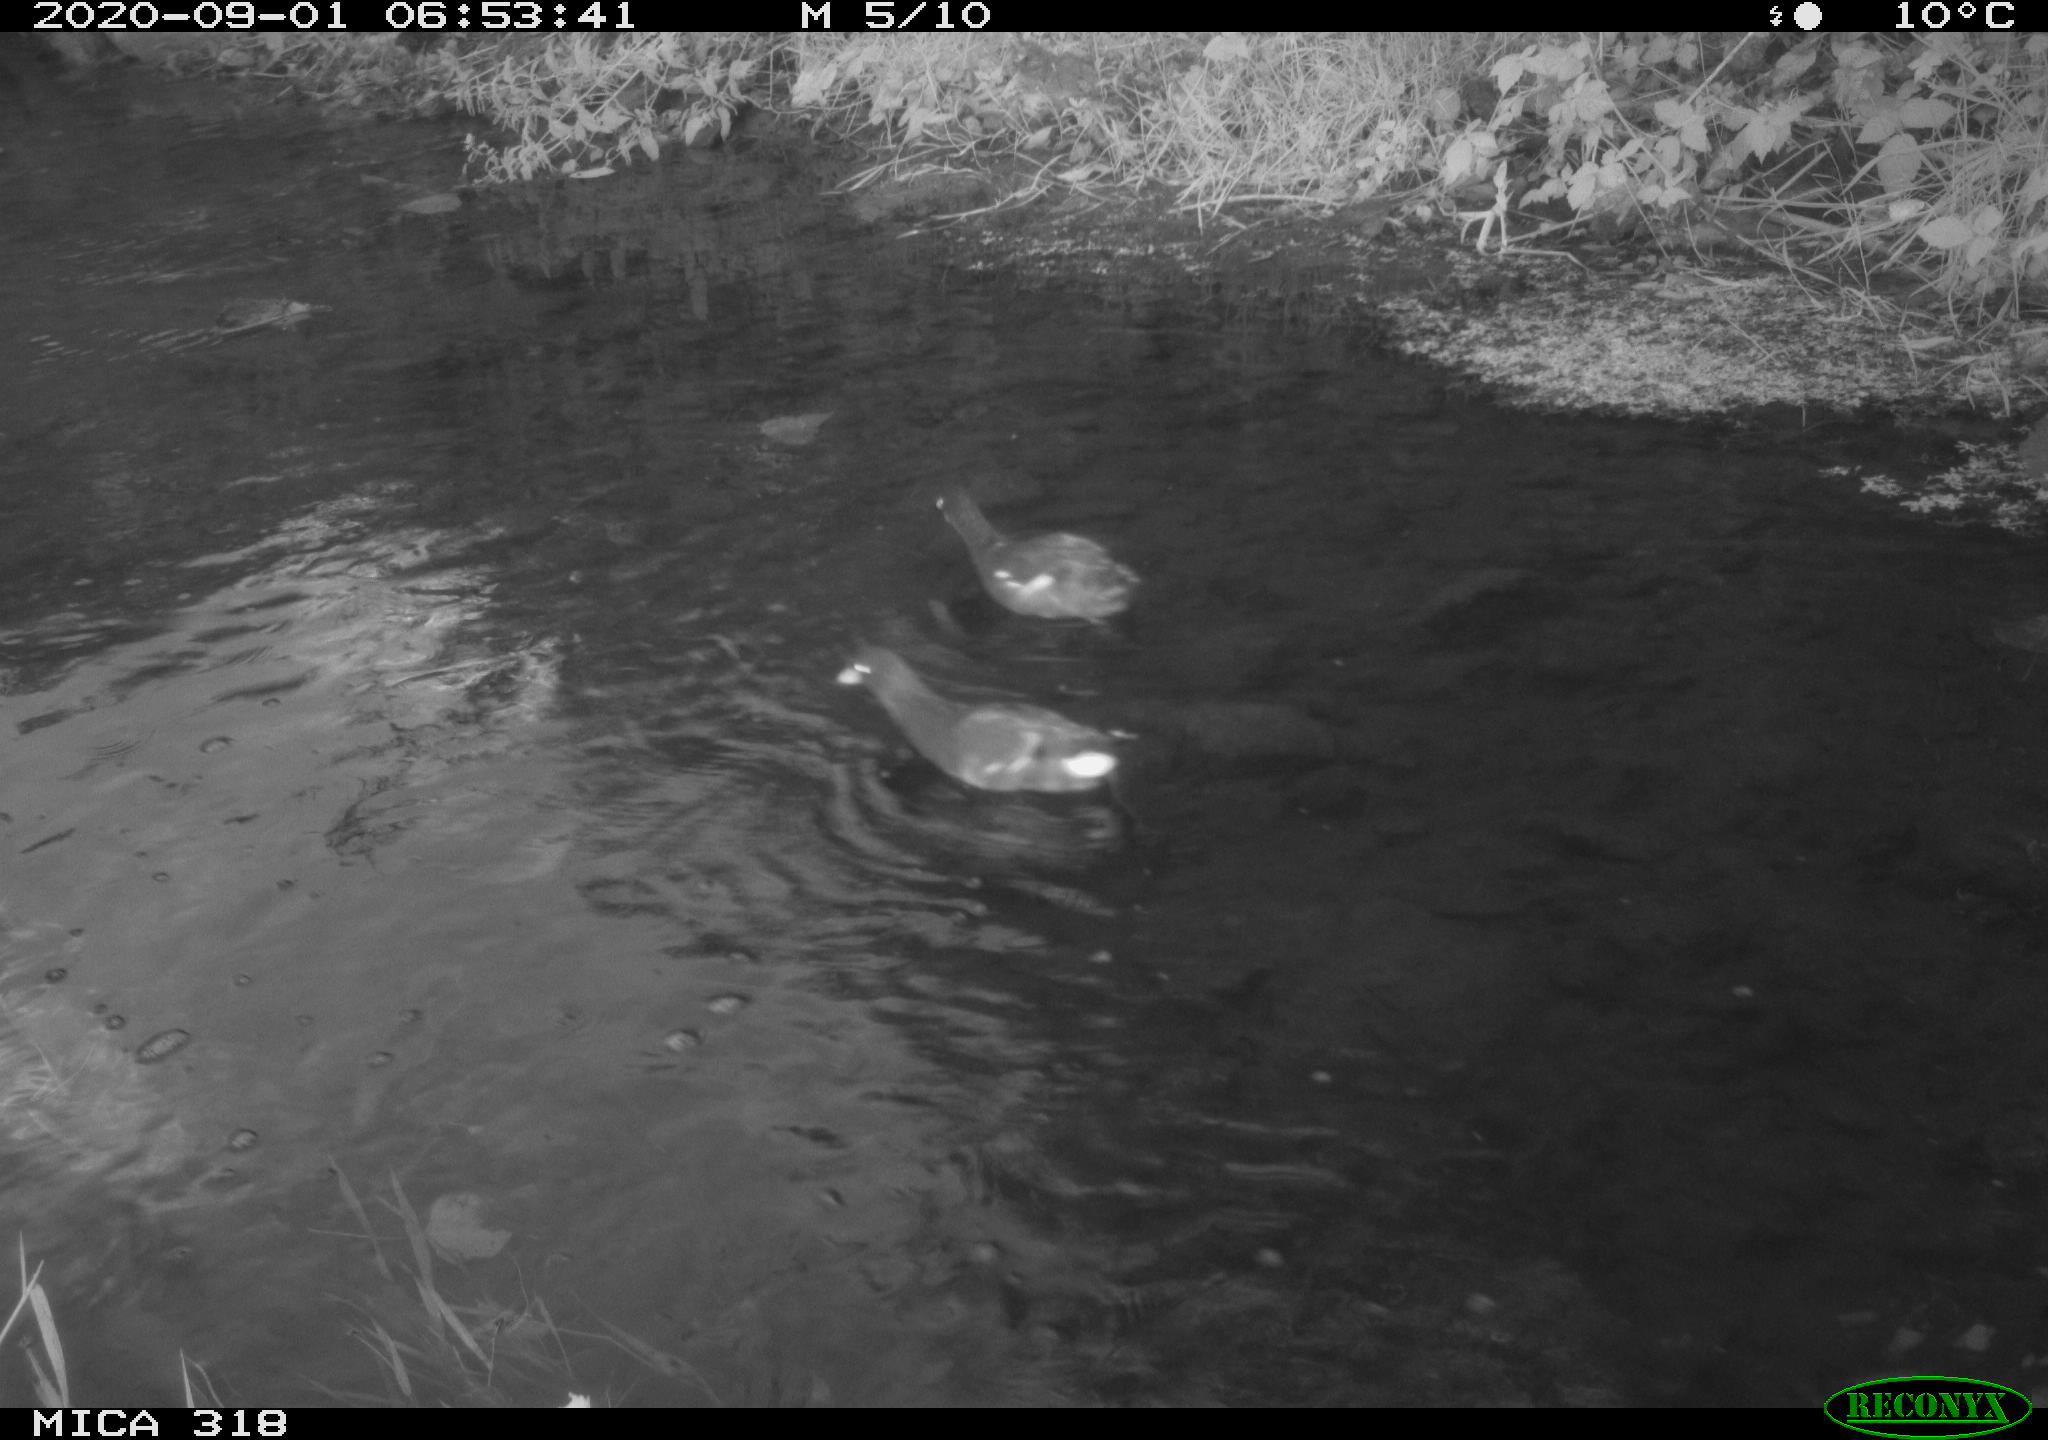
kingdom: Animalia
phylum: Chordata
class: Aves
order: Gruiformes
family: Rallidae
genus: Gallinula
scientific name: Gallinula chloropus
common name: Common moorhen
